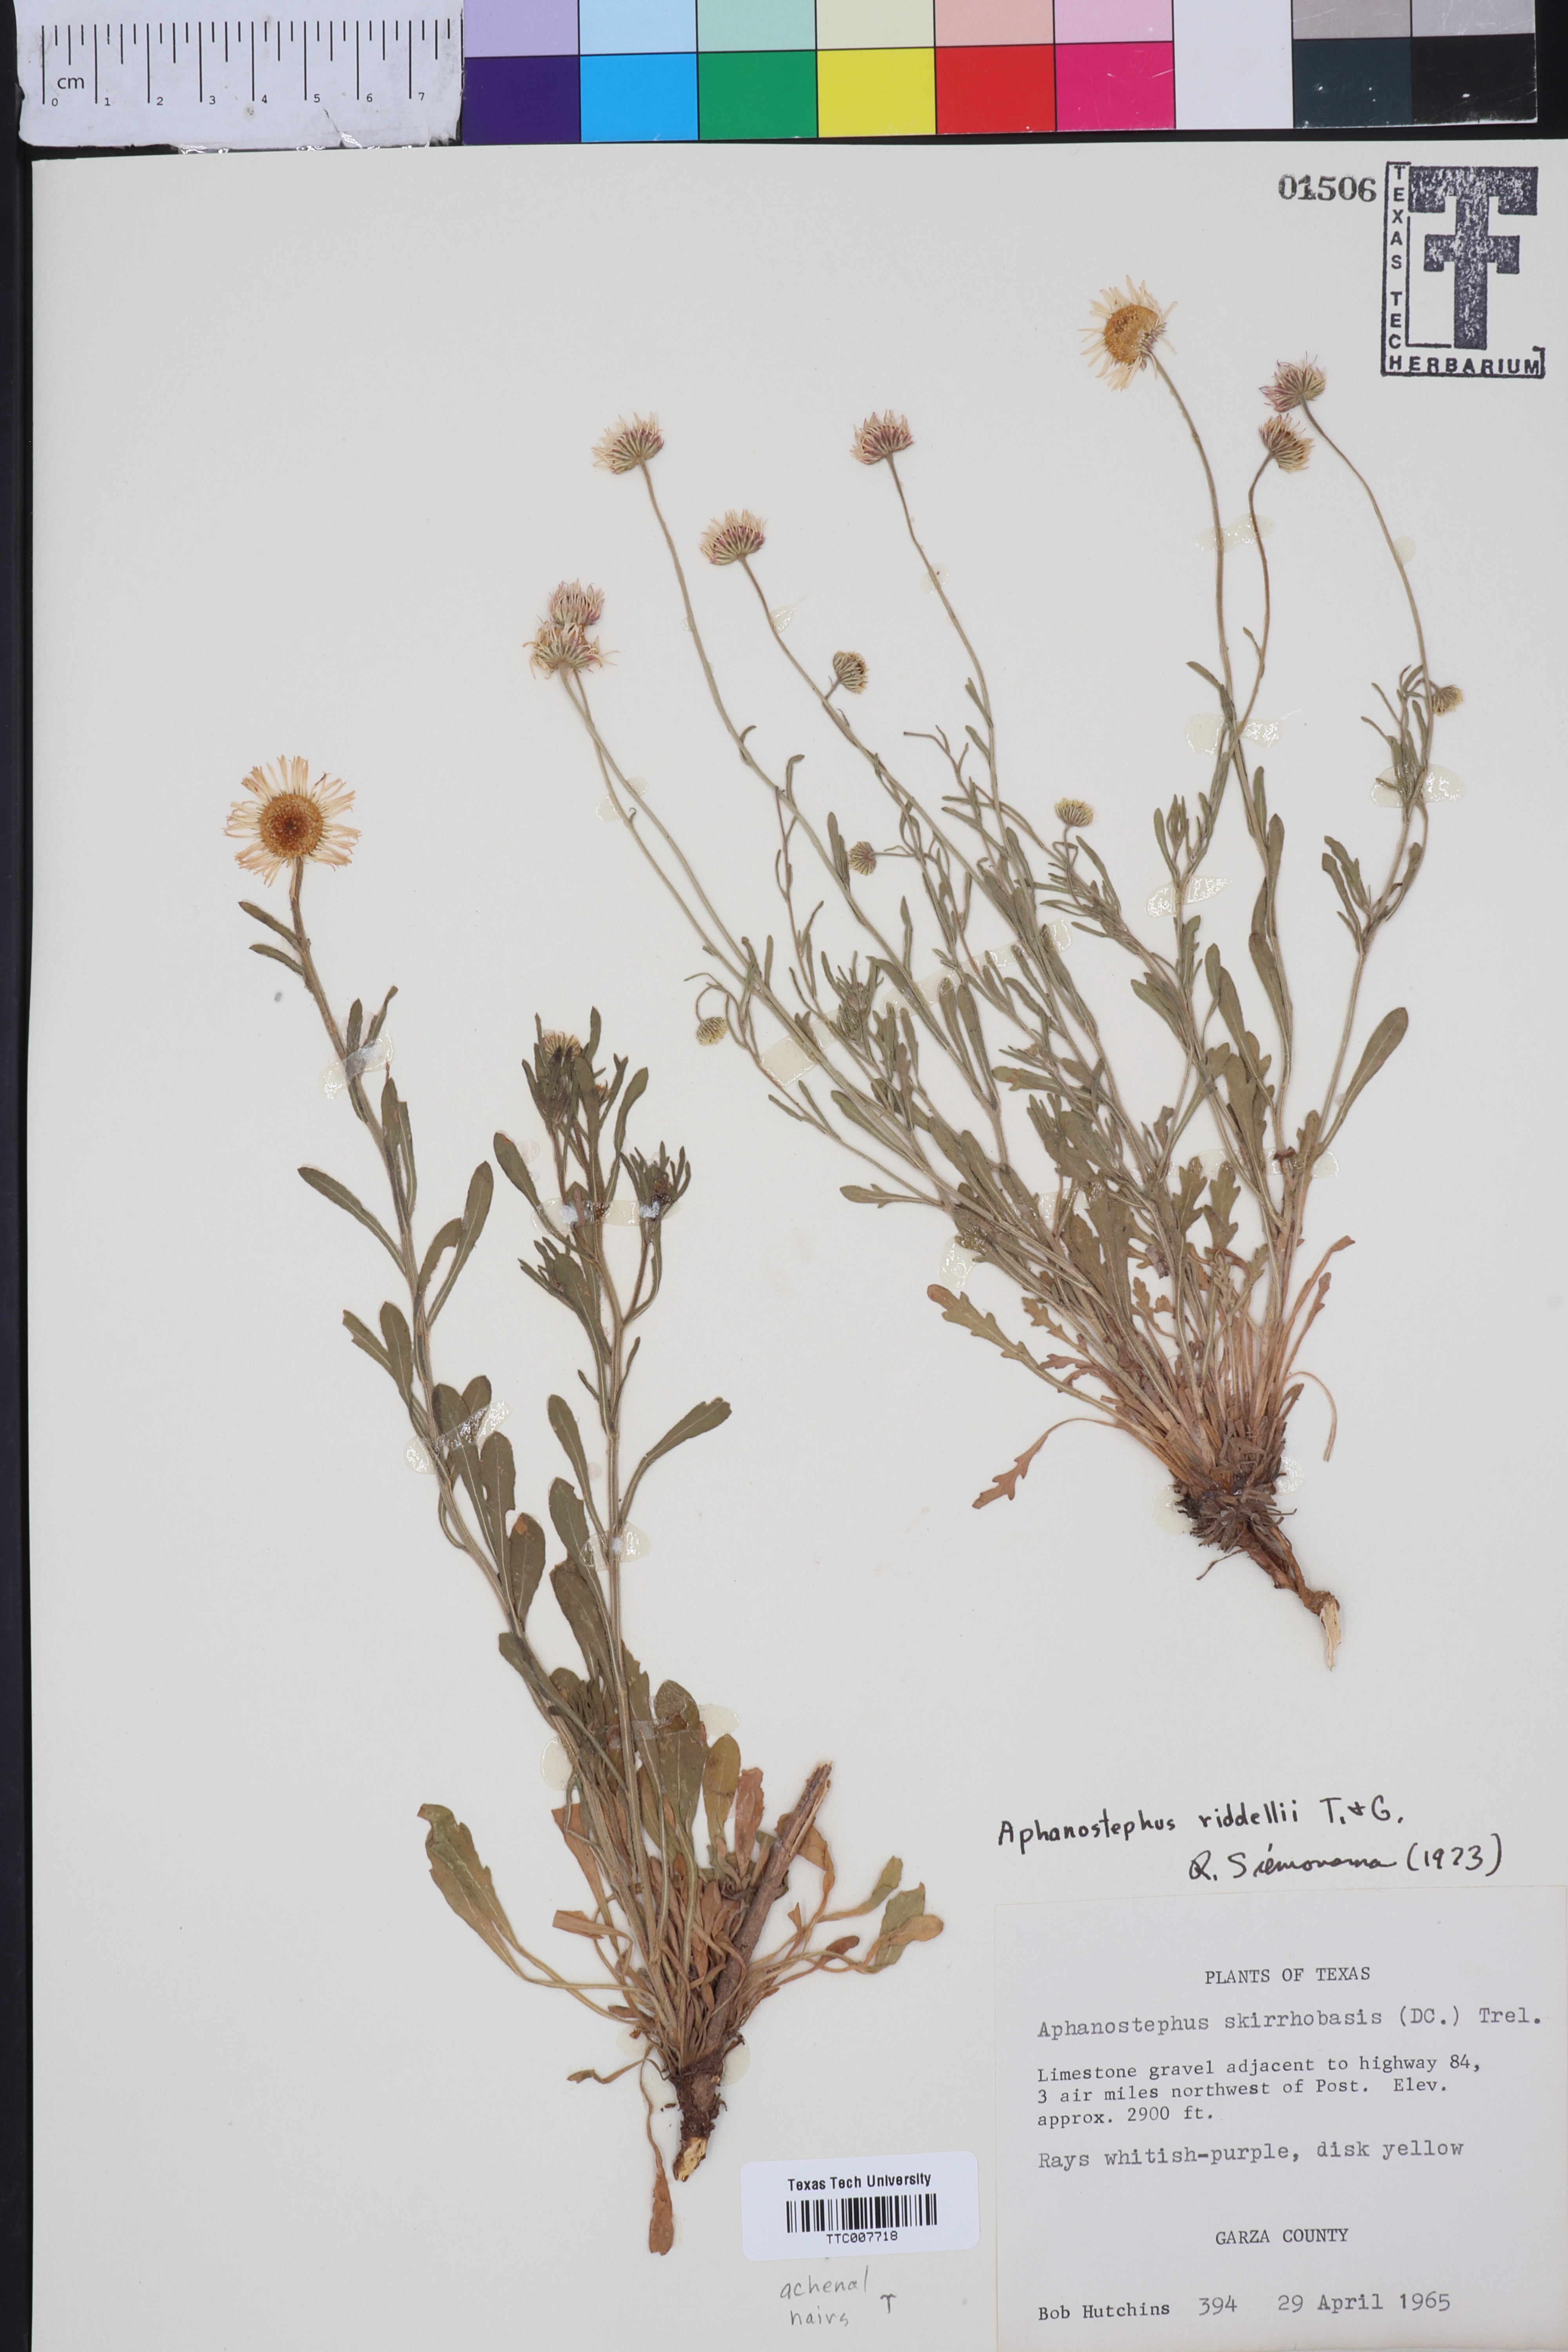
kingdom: Plantae
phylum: Tracheophyta
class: Magnoliopsida
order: Asterales
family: Asteraceae
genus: Aphanostephus
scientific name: Aphanostephus riddellii
